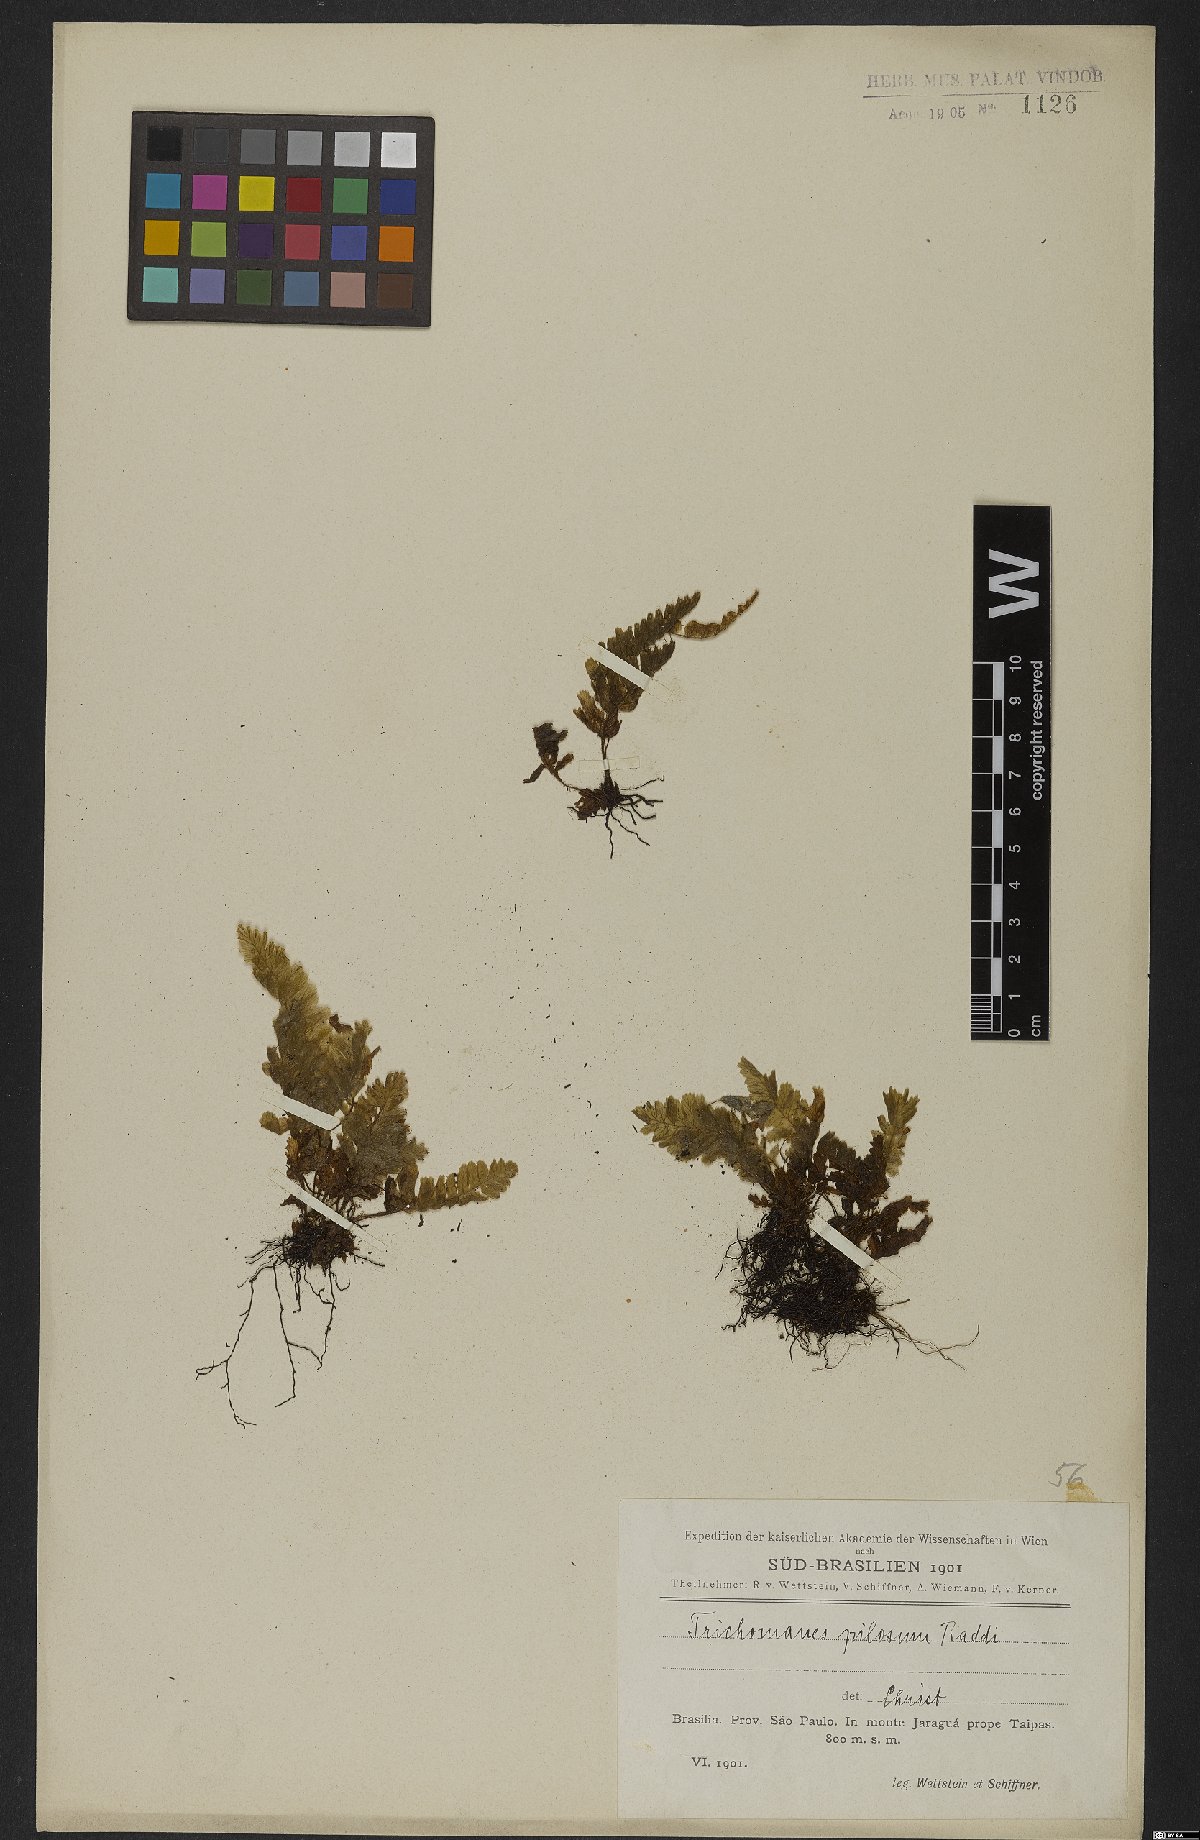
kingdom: Plantae
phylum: Tracheophyta
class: Polypodiopsida
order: Hymenophyllales
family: Hymenophyllaceae
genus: Trichomanes
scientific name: Trichomanes pilosum
